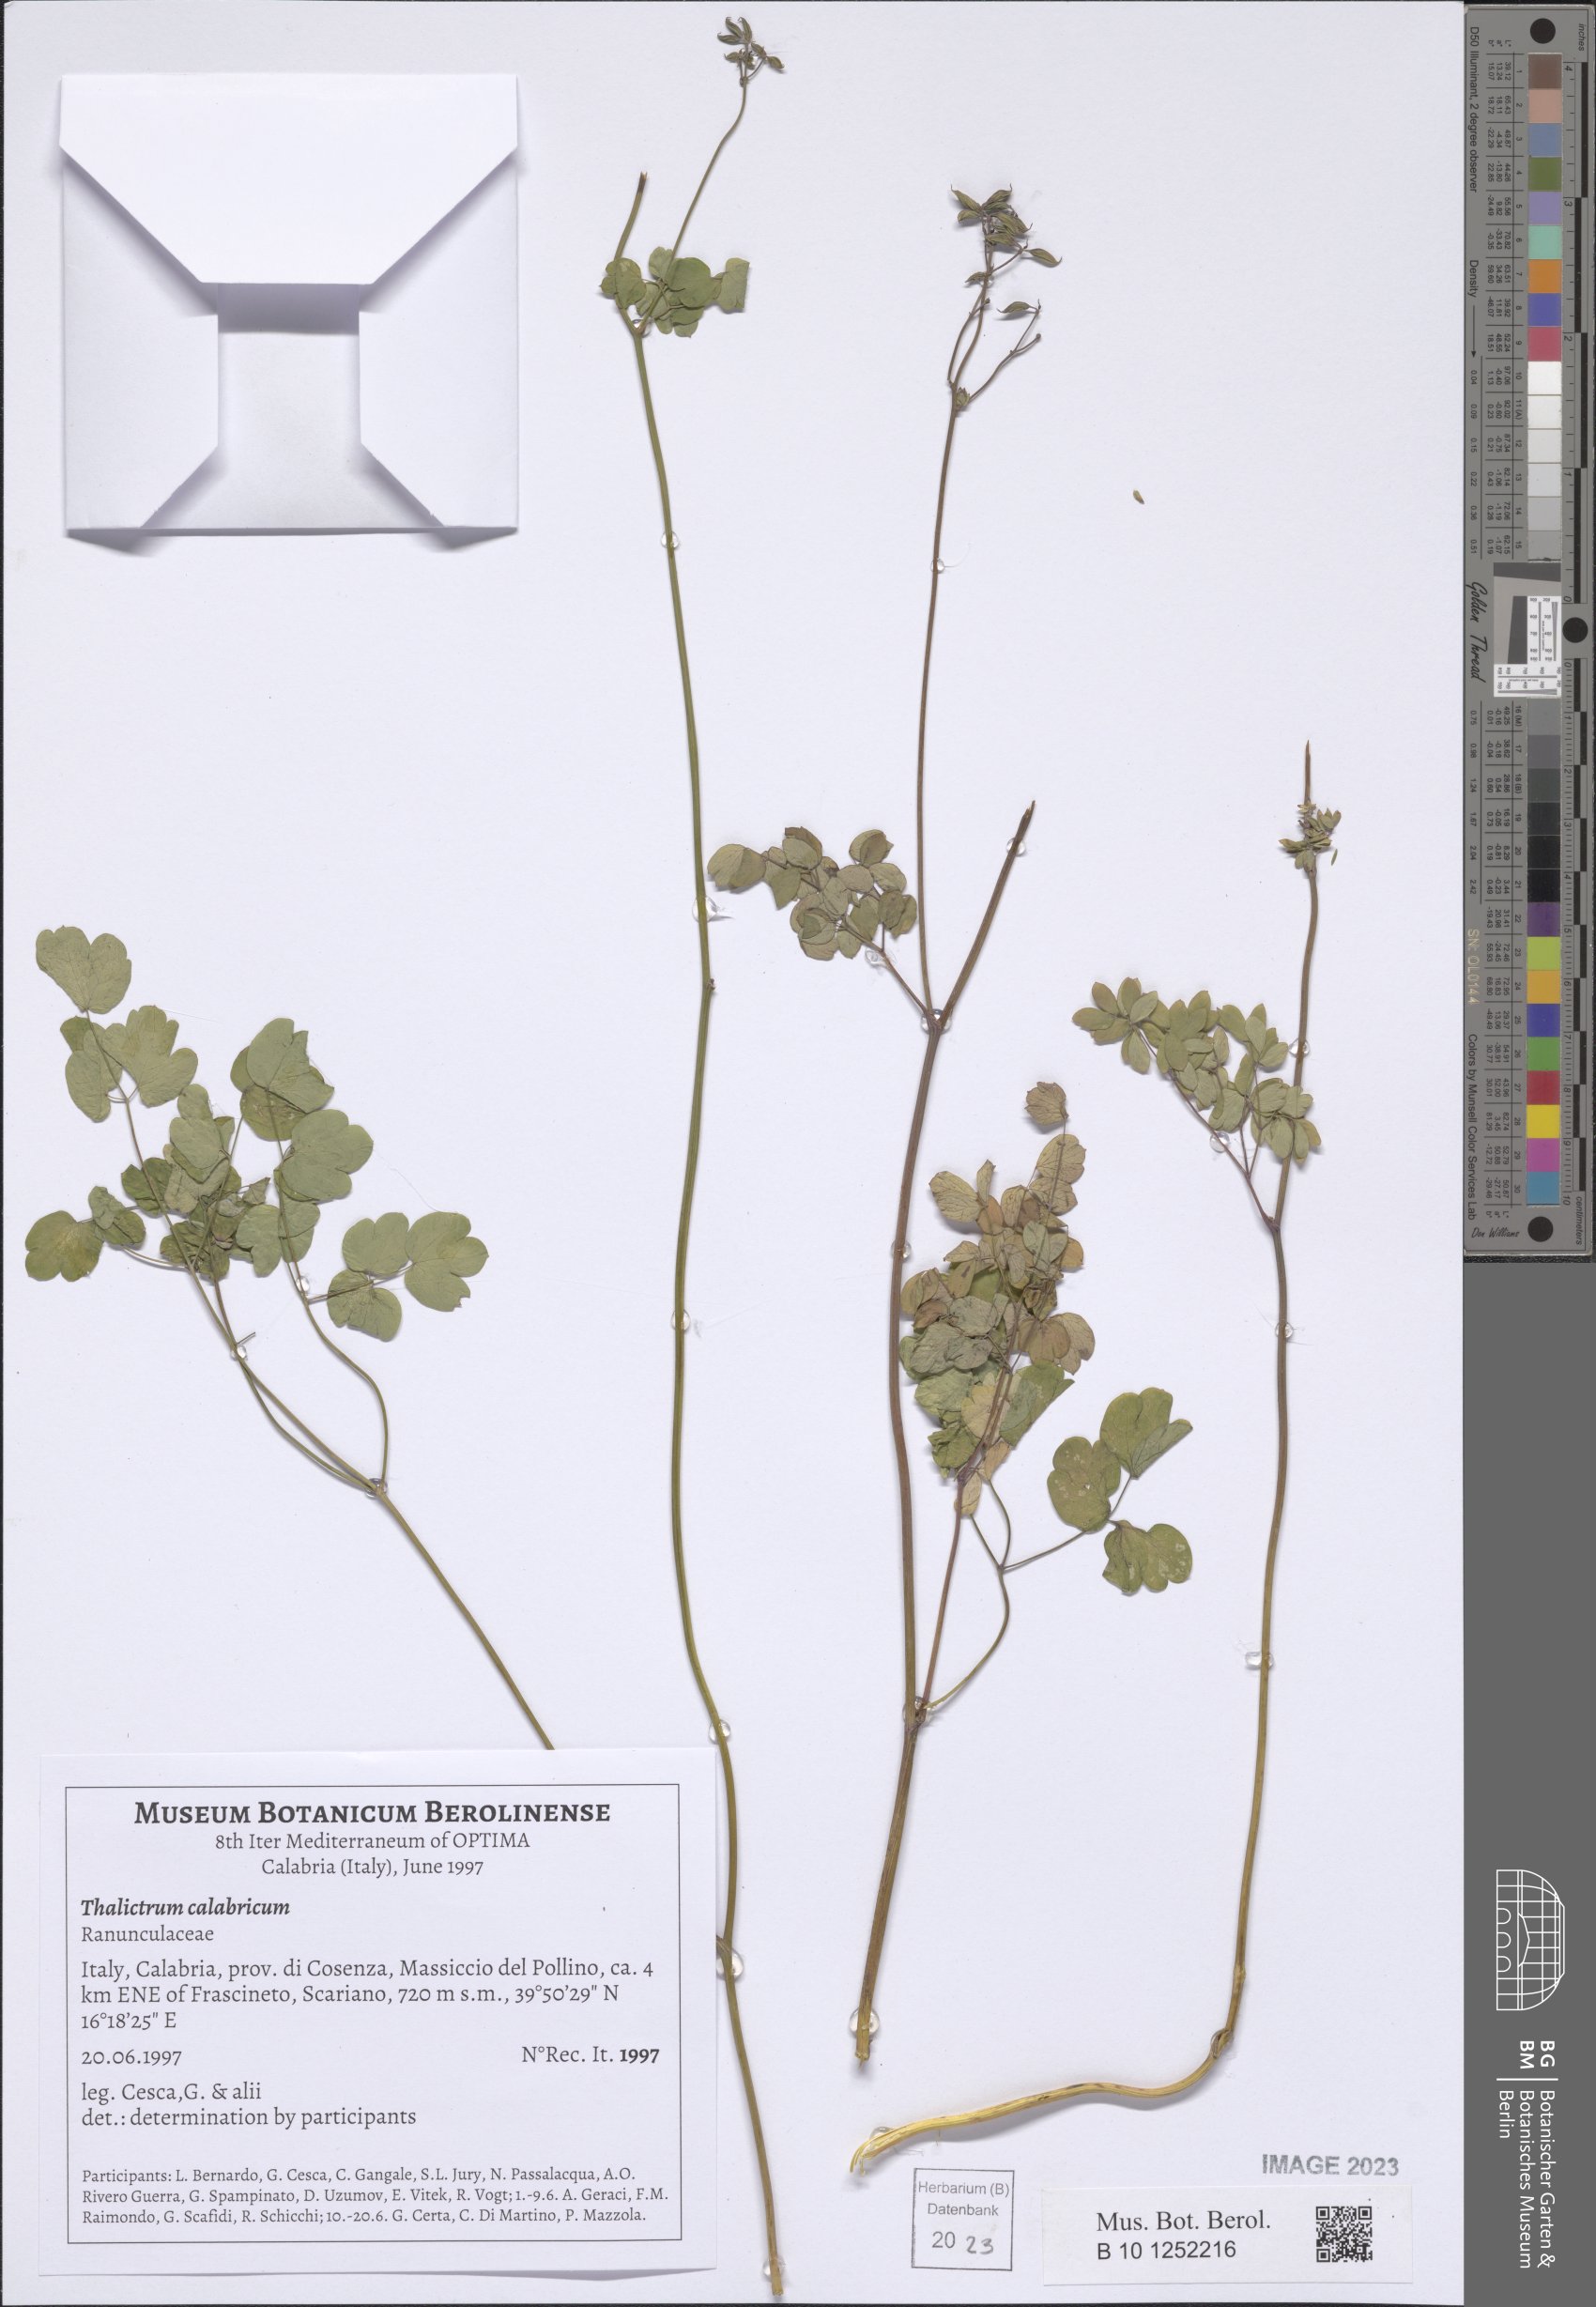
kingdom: Plantae
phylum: Tracheophyta
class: Magnoliopsida
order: Ranunculales
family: Ranunculaceae
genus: Thalictrum
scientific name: Thalictrum calabricum
